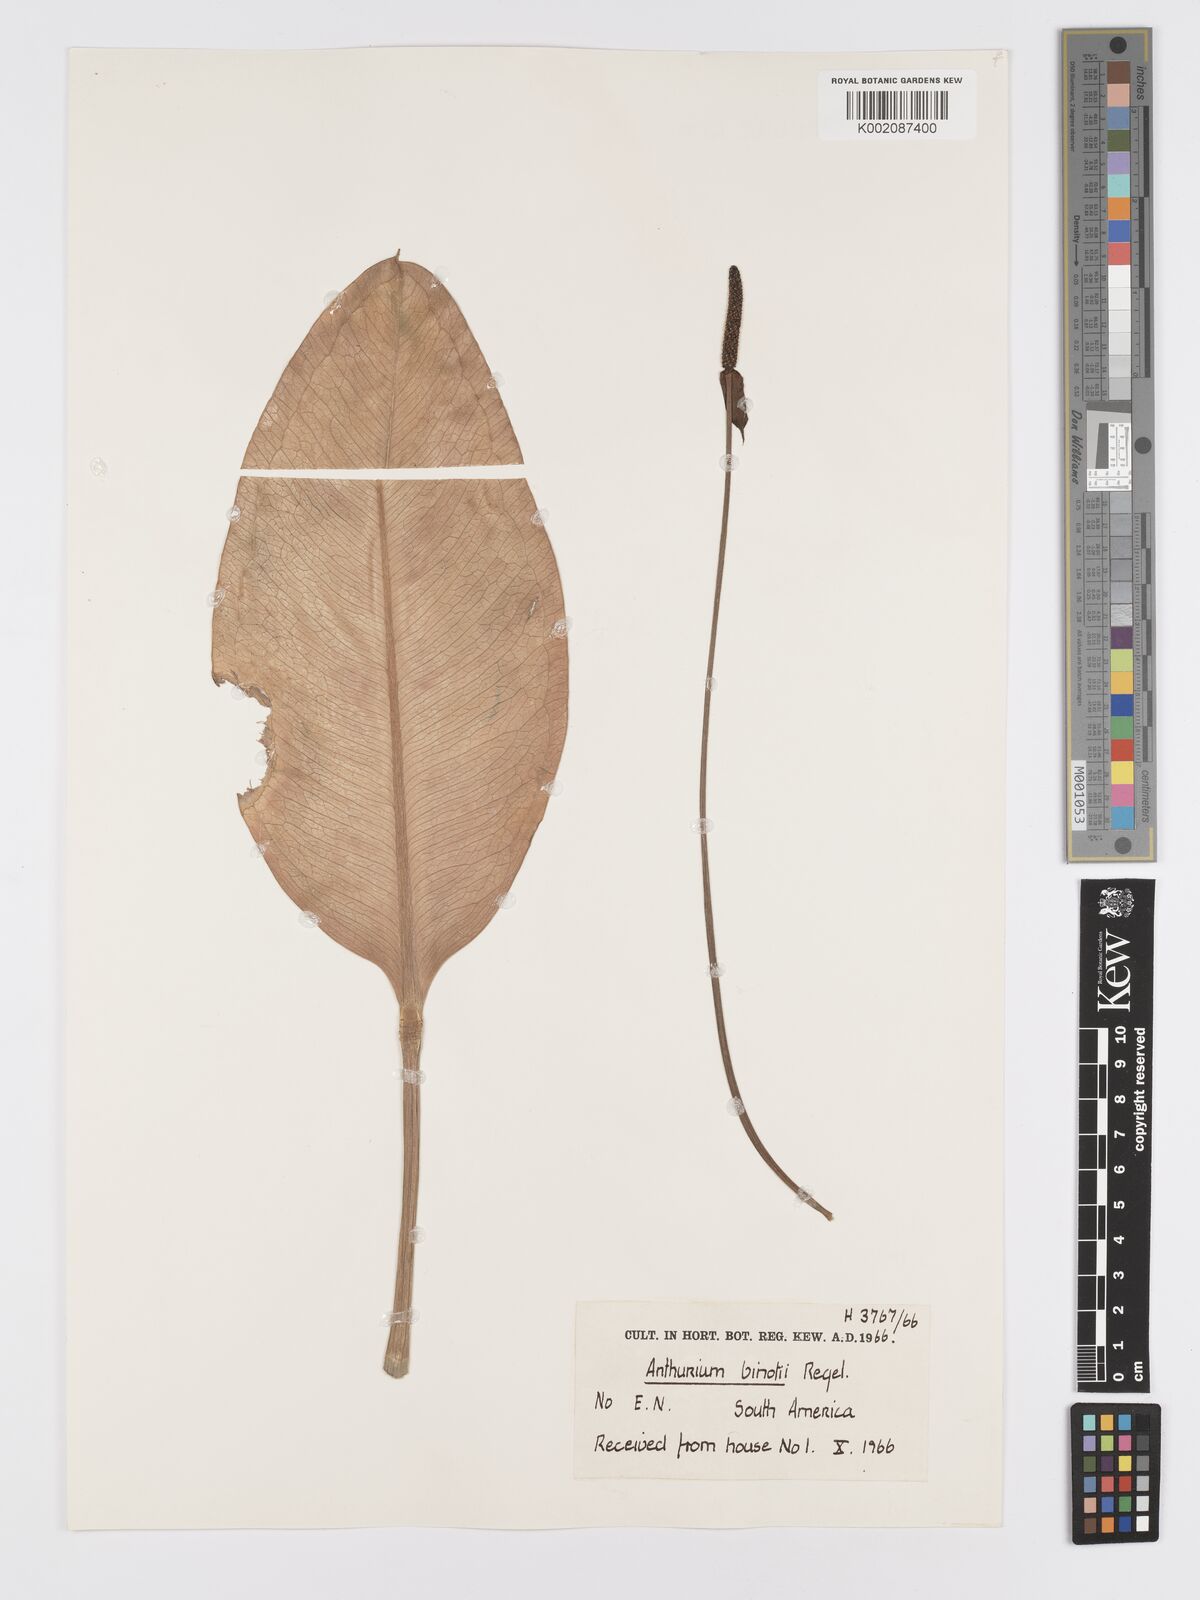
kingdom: Plantae
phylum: Tracheophyta
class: Liliopsida
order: Alismatales
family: Araceae
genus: Anthurium
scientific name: Anthurium binotii
